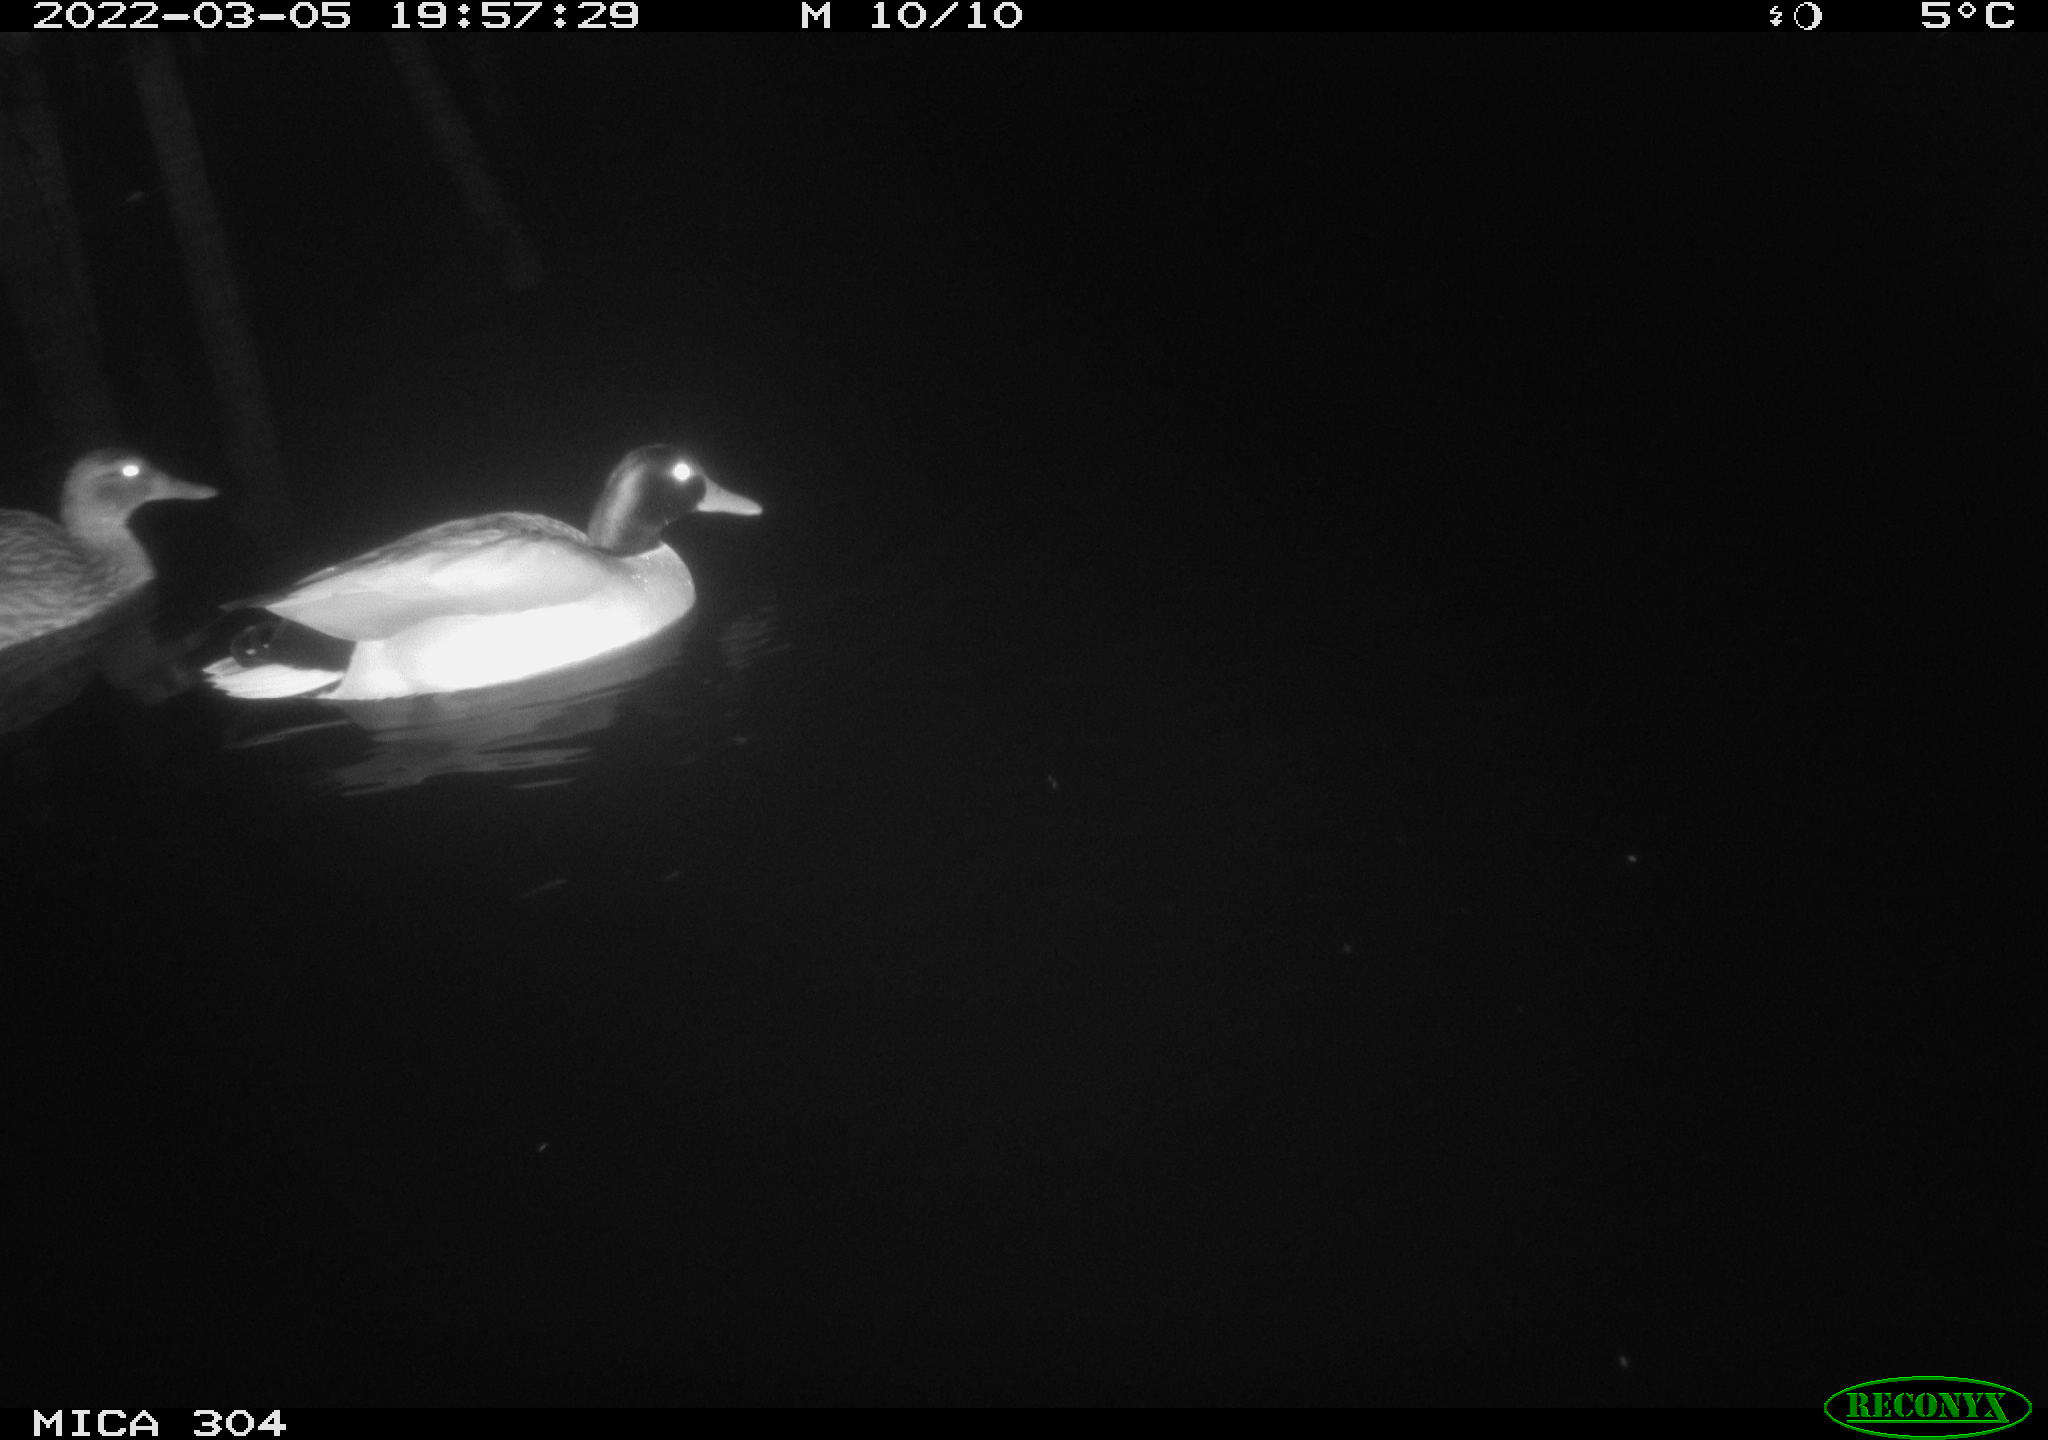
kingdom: Animalia
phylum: Chordata
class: Aves
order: Anseriformes
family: Anatidae
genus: Anas
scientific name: Anas platyrhynchos
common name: Mallard
